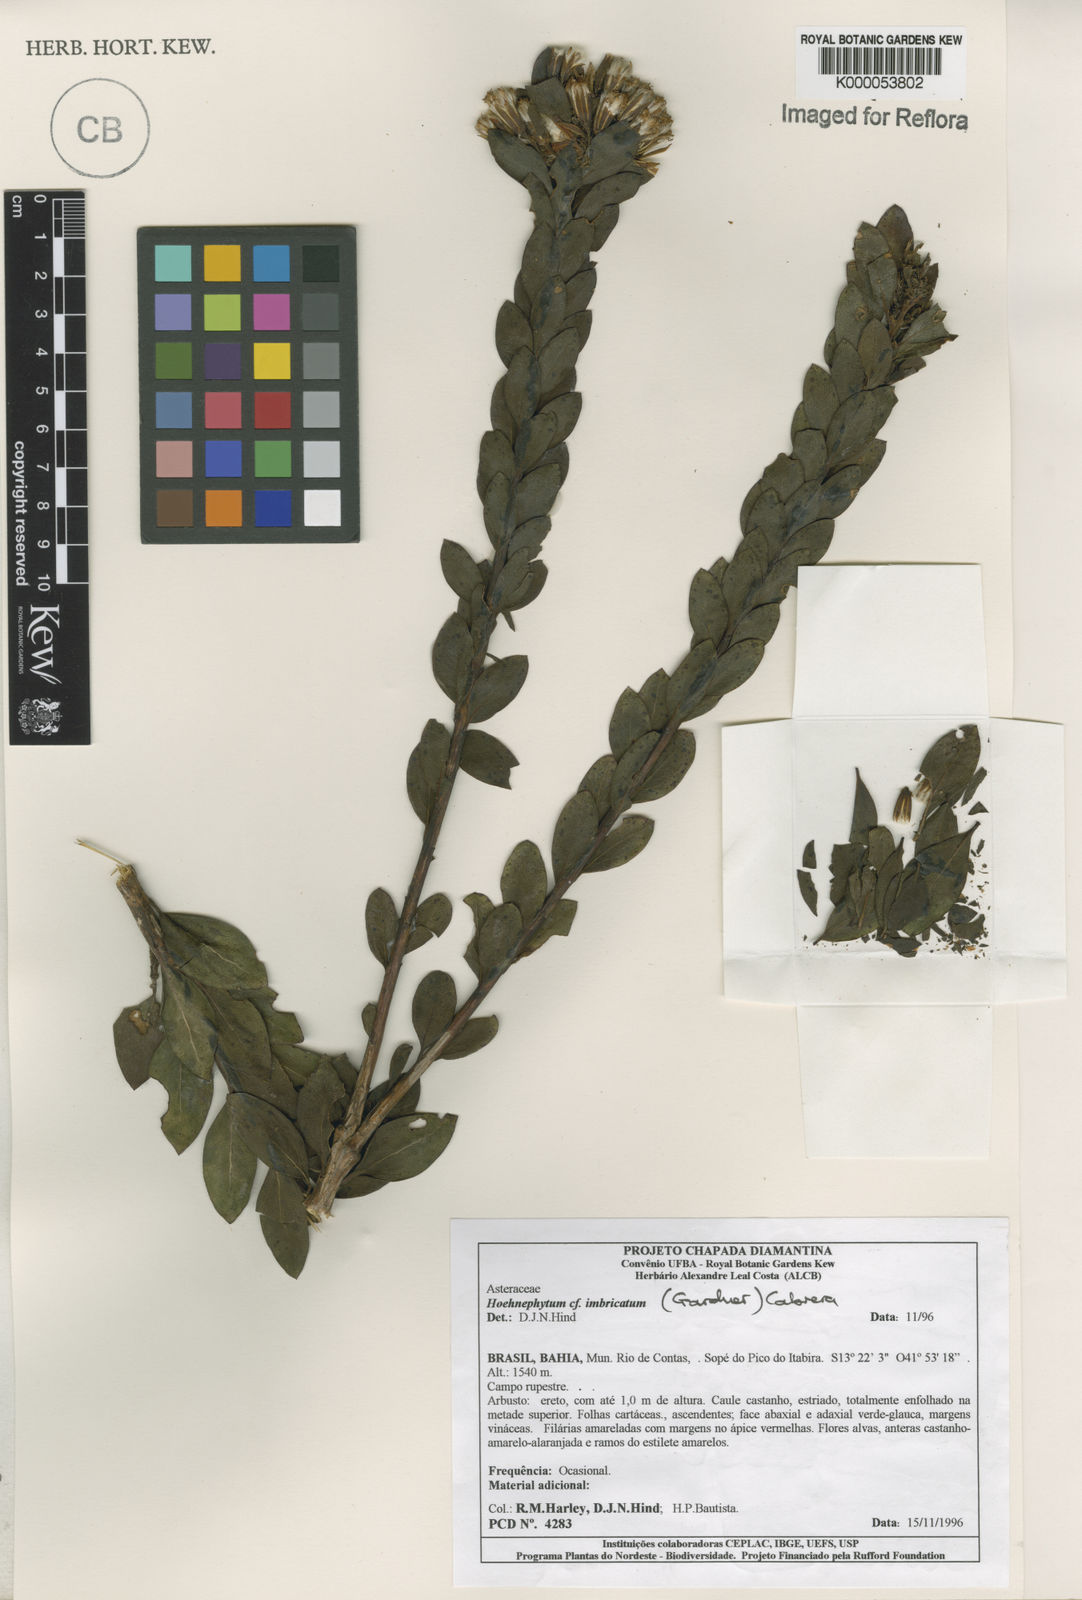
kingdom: Plantae
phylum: Tracheophyta
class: Magnoliopsida
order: Asterales
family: Asteraceae
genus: Hoehnephytum
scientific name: Hoehnephytum imbricatum
